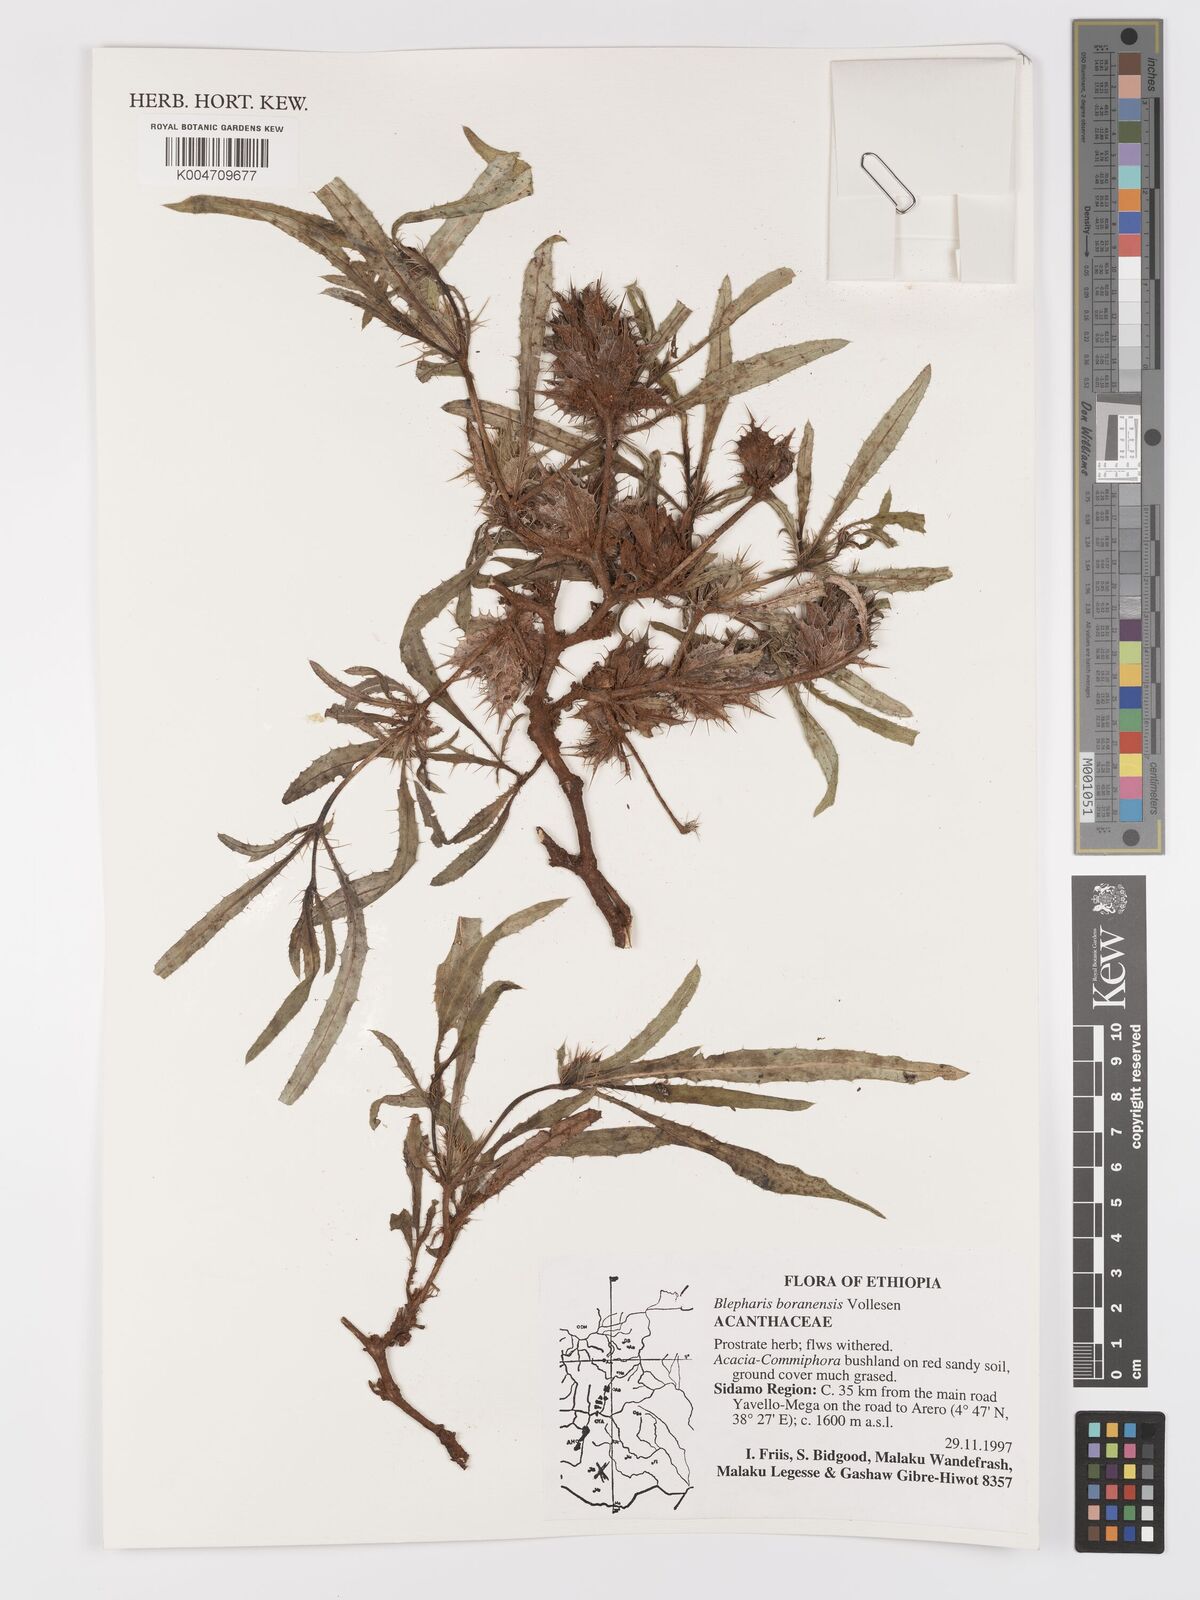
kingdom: Plantae
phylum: Tracheophyta
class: Magnoliopsida
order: Lamiales
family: Acanthaceae
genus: Blepharis
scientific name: Blepharis boranensis
